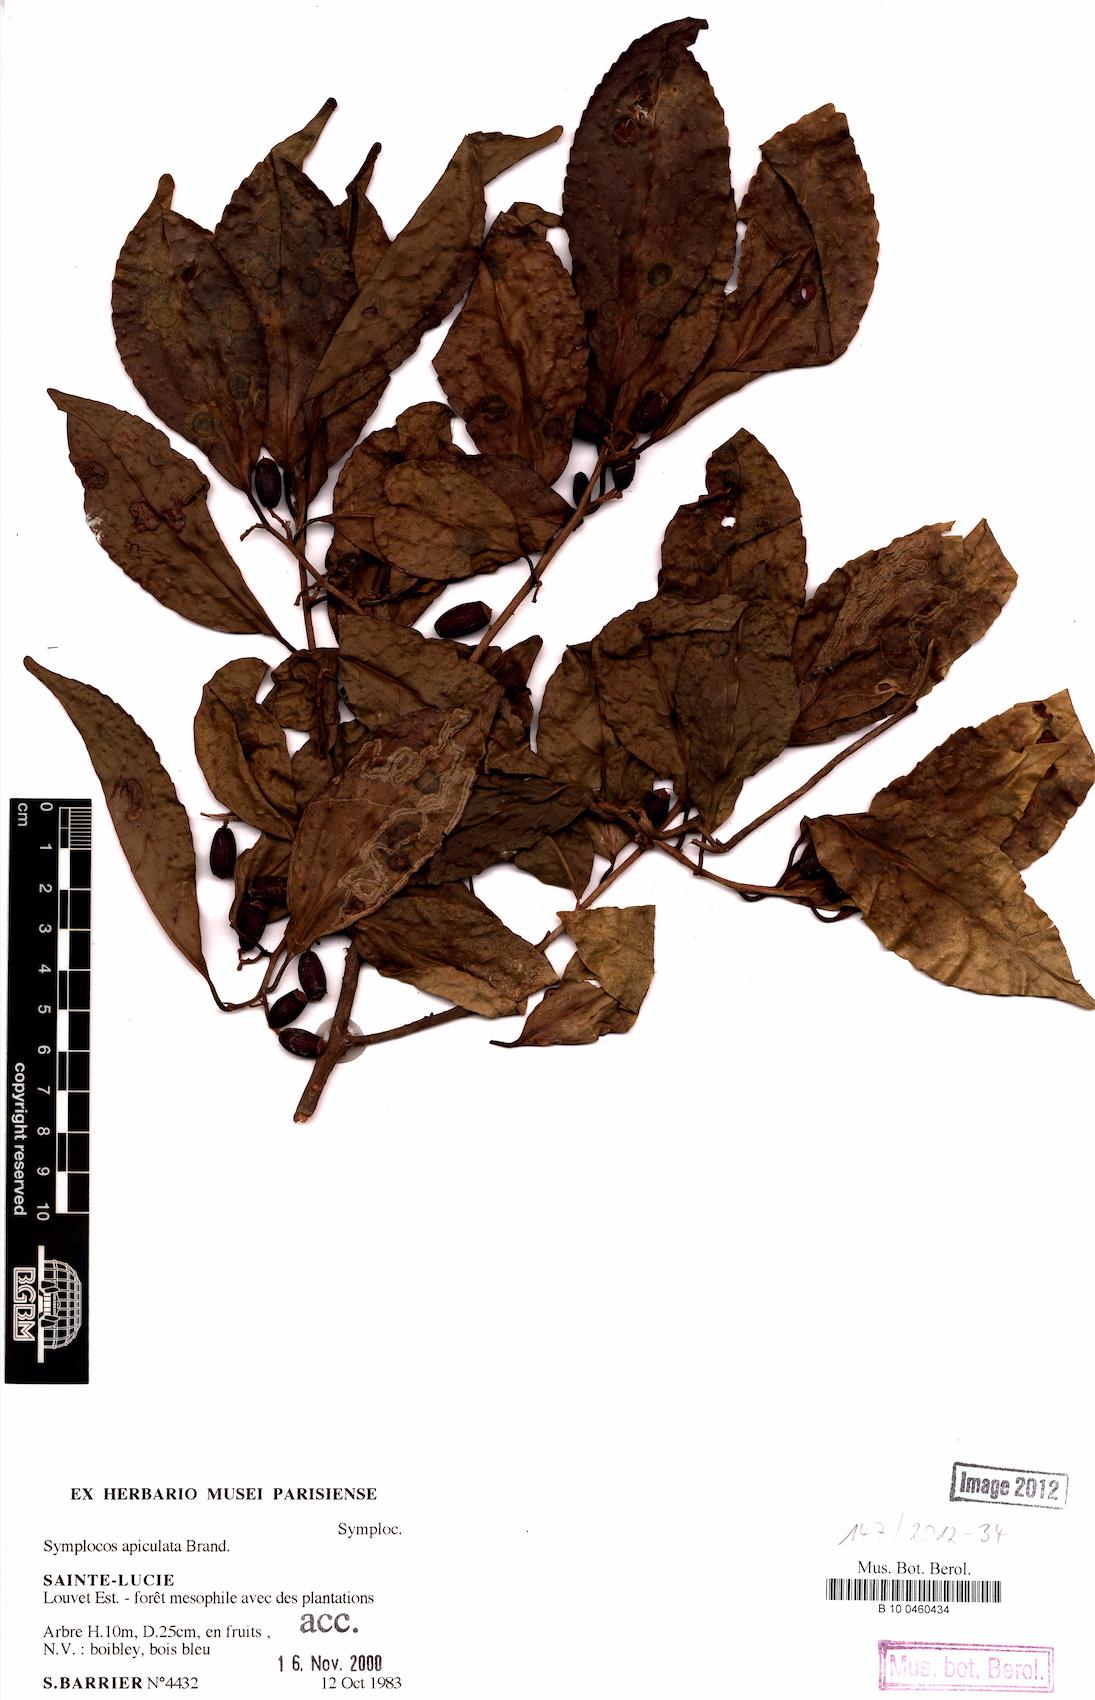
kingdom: Plantae
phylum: Tracheophyta
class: Magnoliopsida
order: Ericales
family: Symplocaceae
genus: Symplocos
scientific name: Symplocos martinicensis
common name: Blueberry
